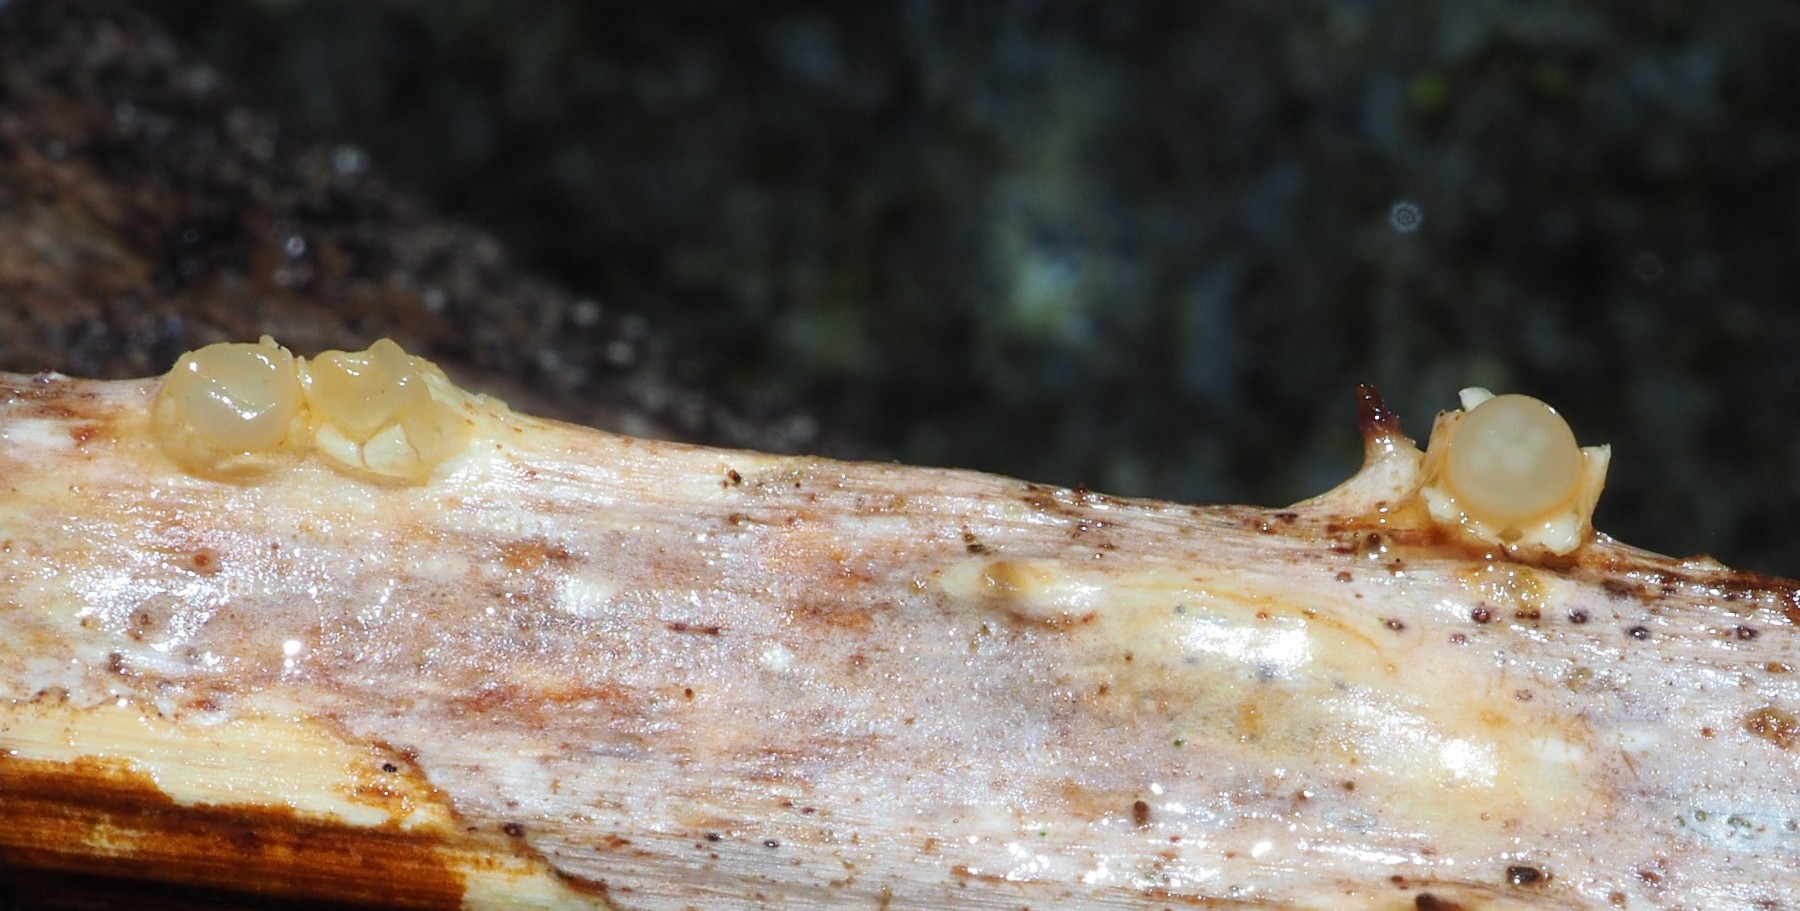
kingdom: Fungi
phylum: Basidiomycota
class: Agaricomycetes
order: Geastrales
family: Geastraceae
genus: Sphaerobolus
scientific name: Sphaerobolus stellatus
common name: bombekaster
